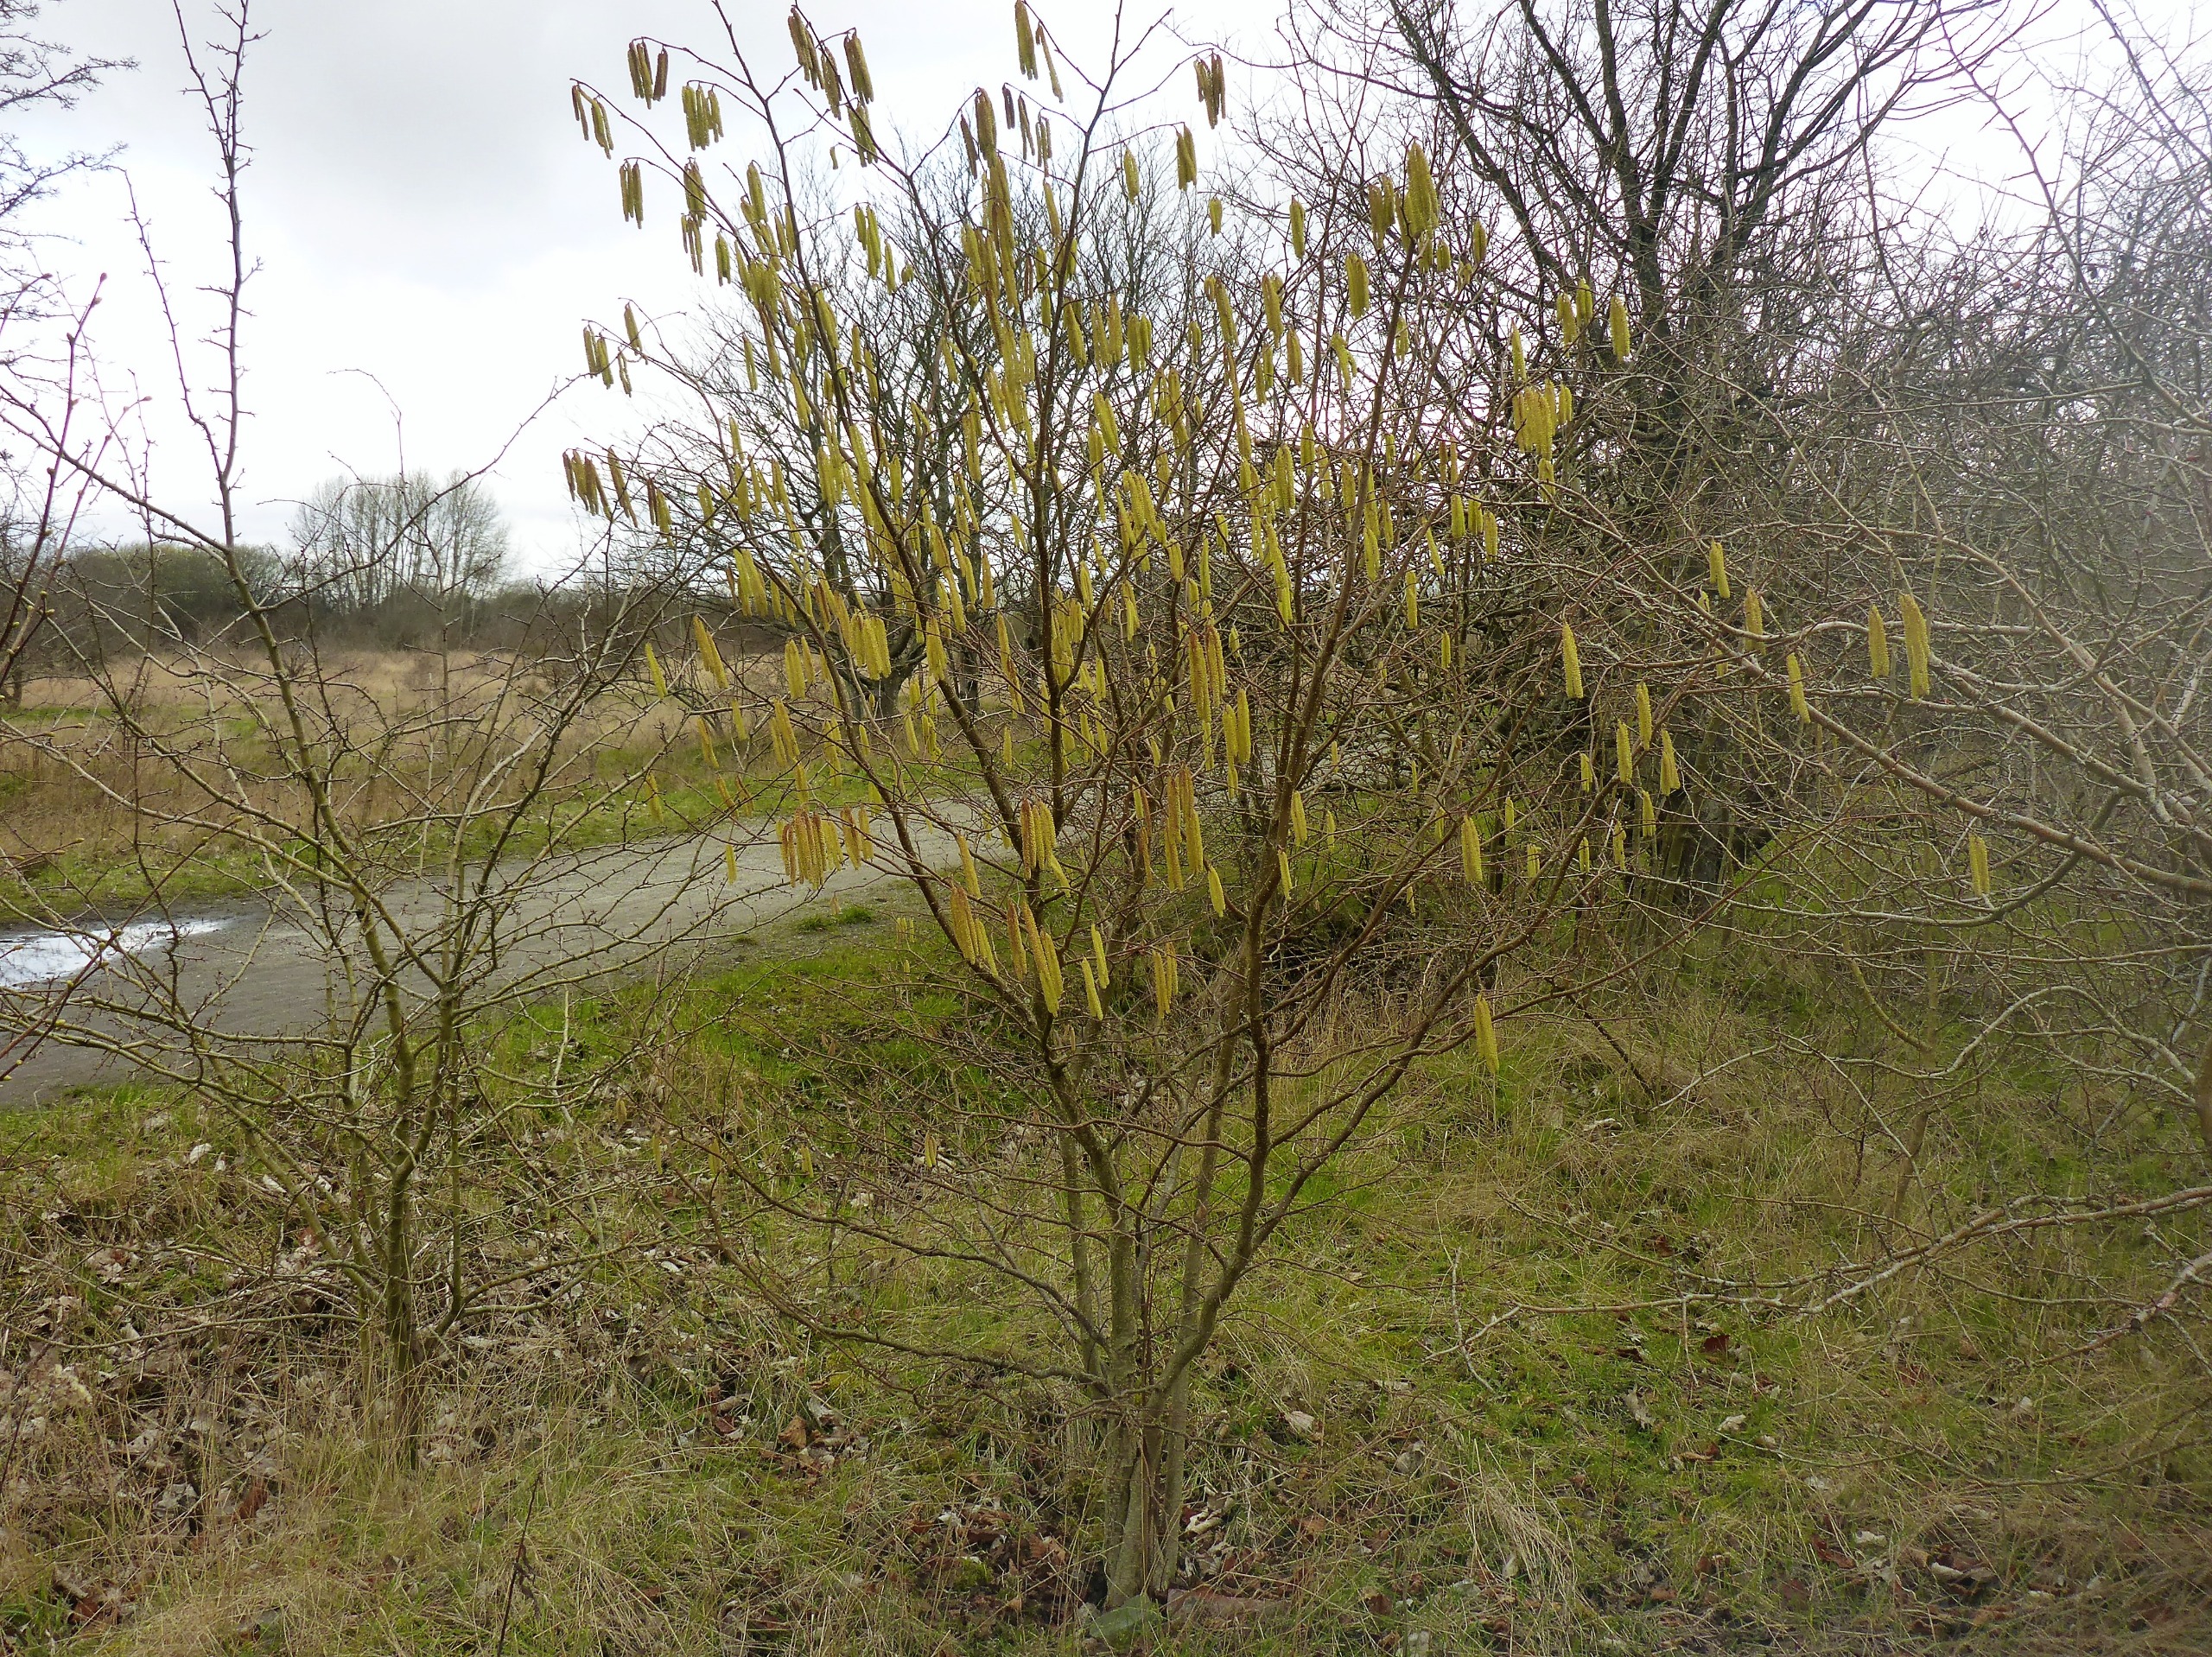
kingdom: Plantae
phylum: Tracheophyta
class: Magnoliopsida
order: Fagales
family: Betulaceae
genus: Corylus
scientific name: Corylus avellana
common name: Hassel
